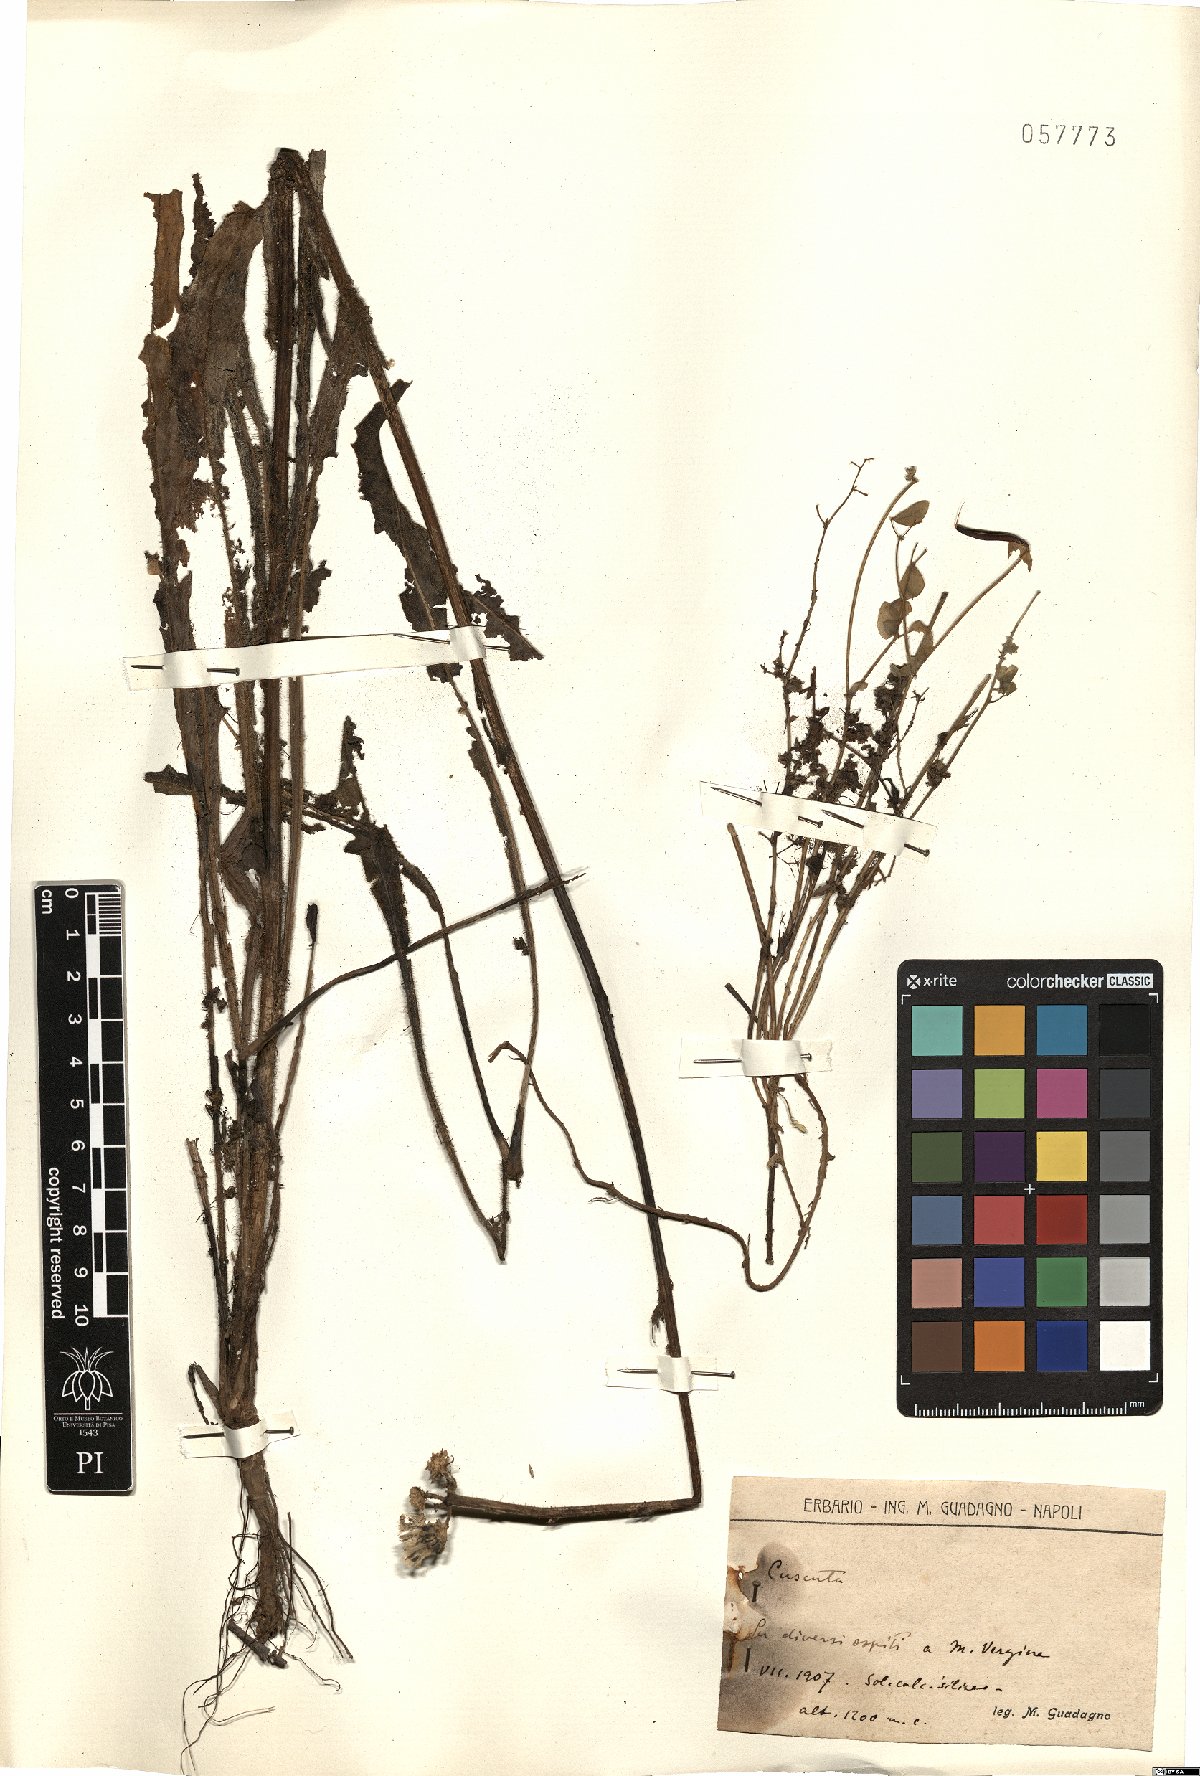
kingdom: Plantae
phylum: Tracheophyta
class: Magnoliopsida
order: Solanales
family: Convolvulaceae
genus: Cuscuta
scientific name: Cuscuta
